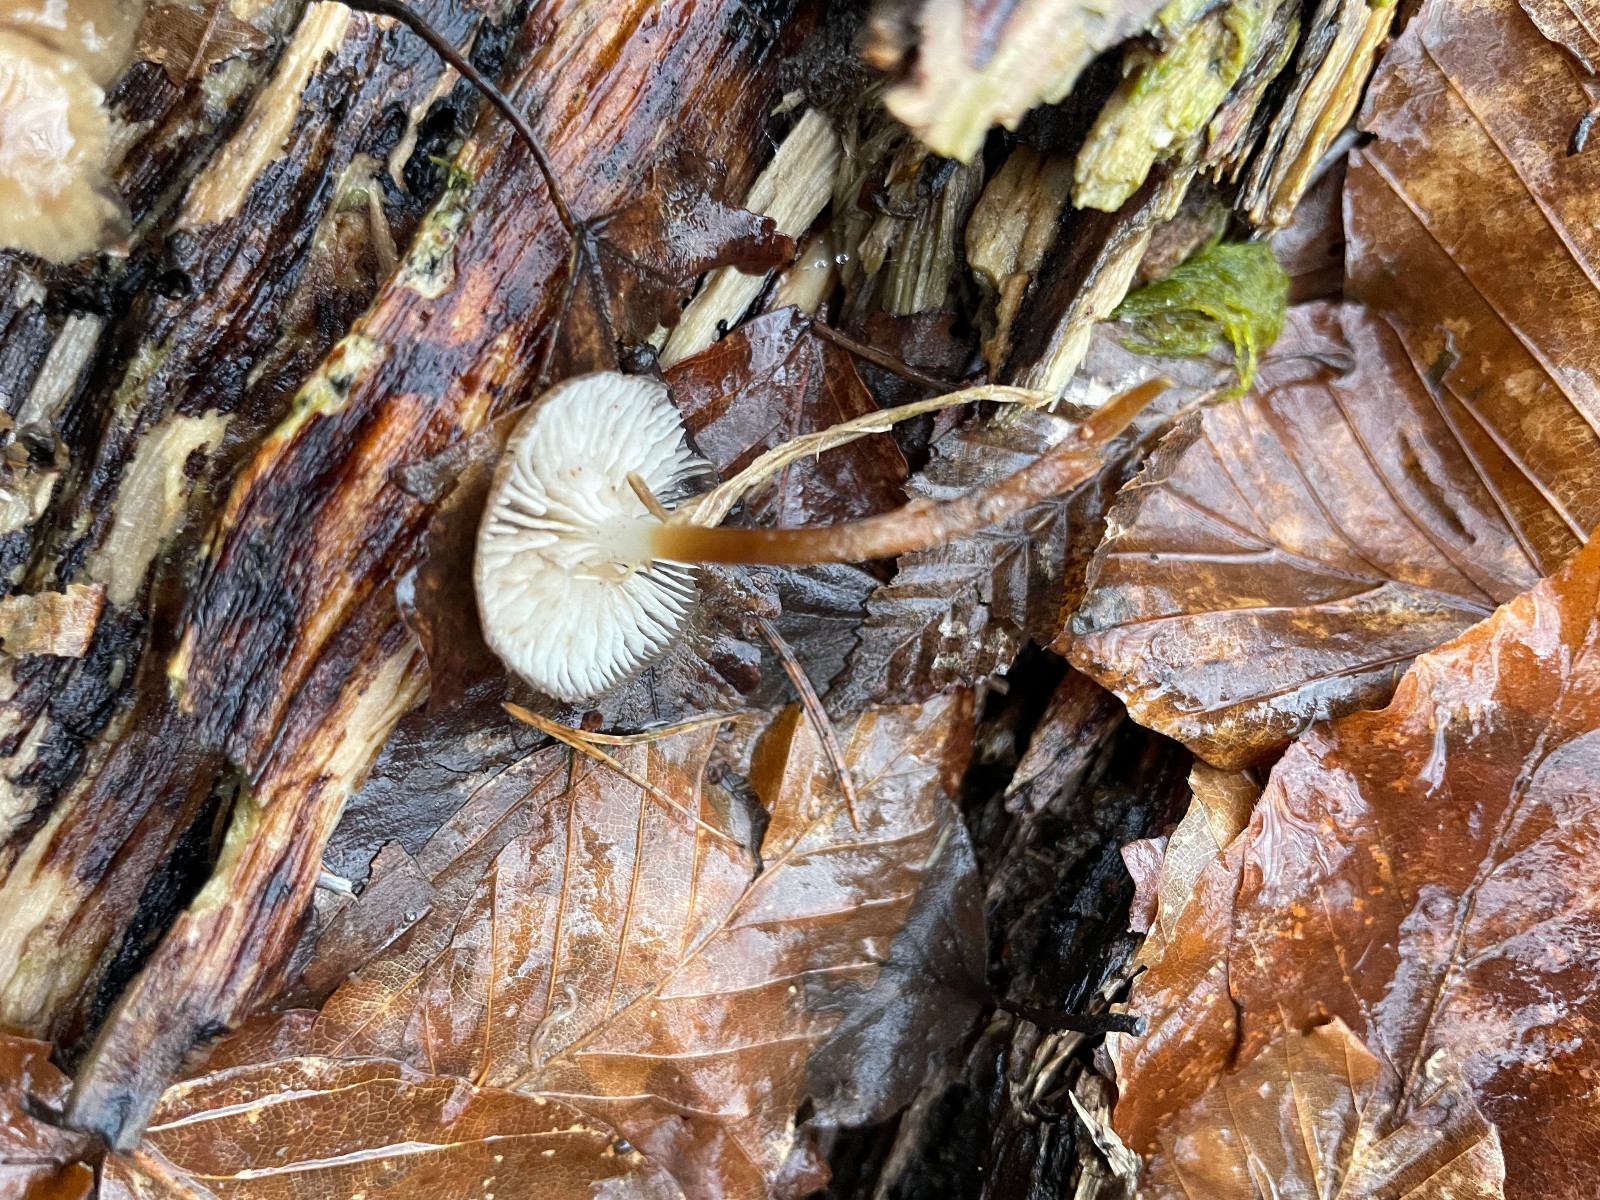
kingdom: Fungi
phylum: Basidiomycota
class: Agaricomycetes
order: Agaricales
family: Mycenaceae
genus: Mycena
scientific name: Mycena tintinnabulum
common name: vinter-huesvamp
